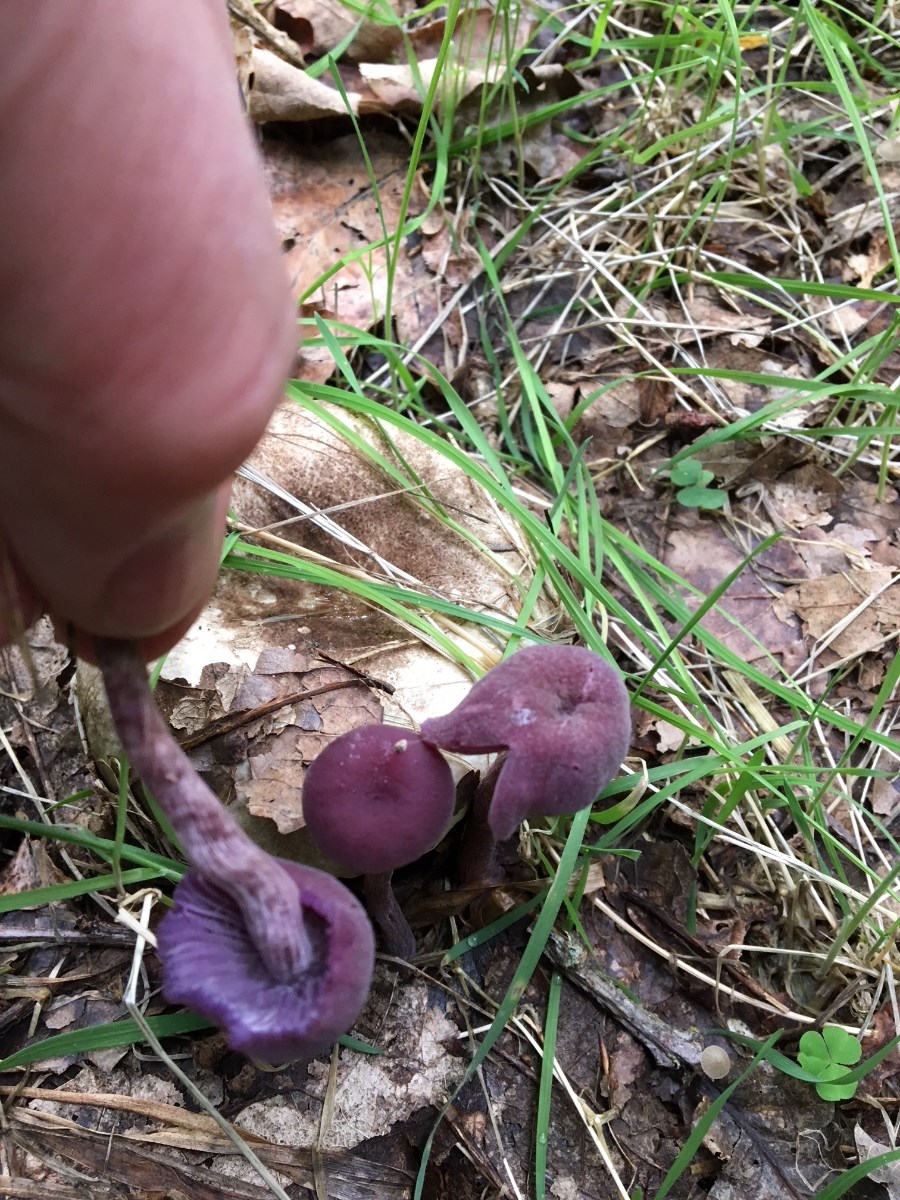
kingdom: Fungi
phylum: Basidiomycota
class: Agaricomycetes
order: Agaricales
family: Hydnangiaceae
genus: Laccaria
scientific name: Laccaria amethystina
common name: violet ametysthat
